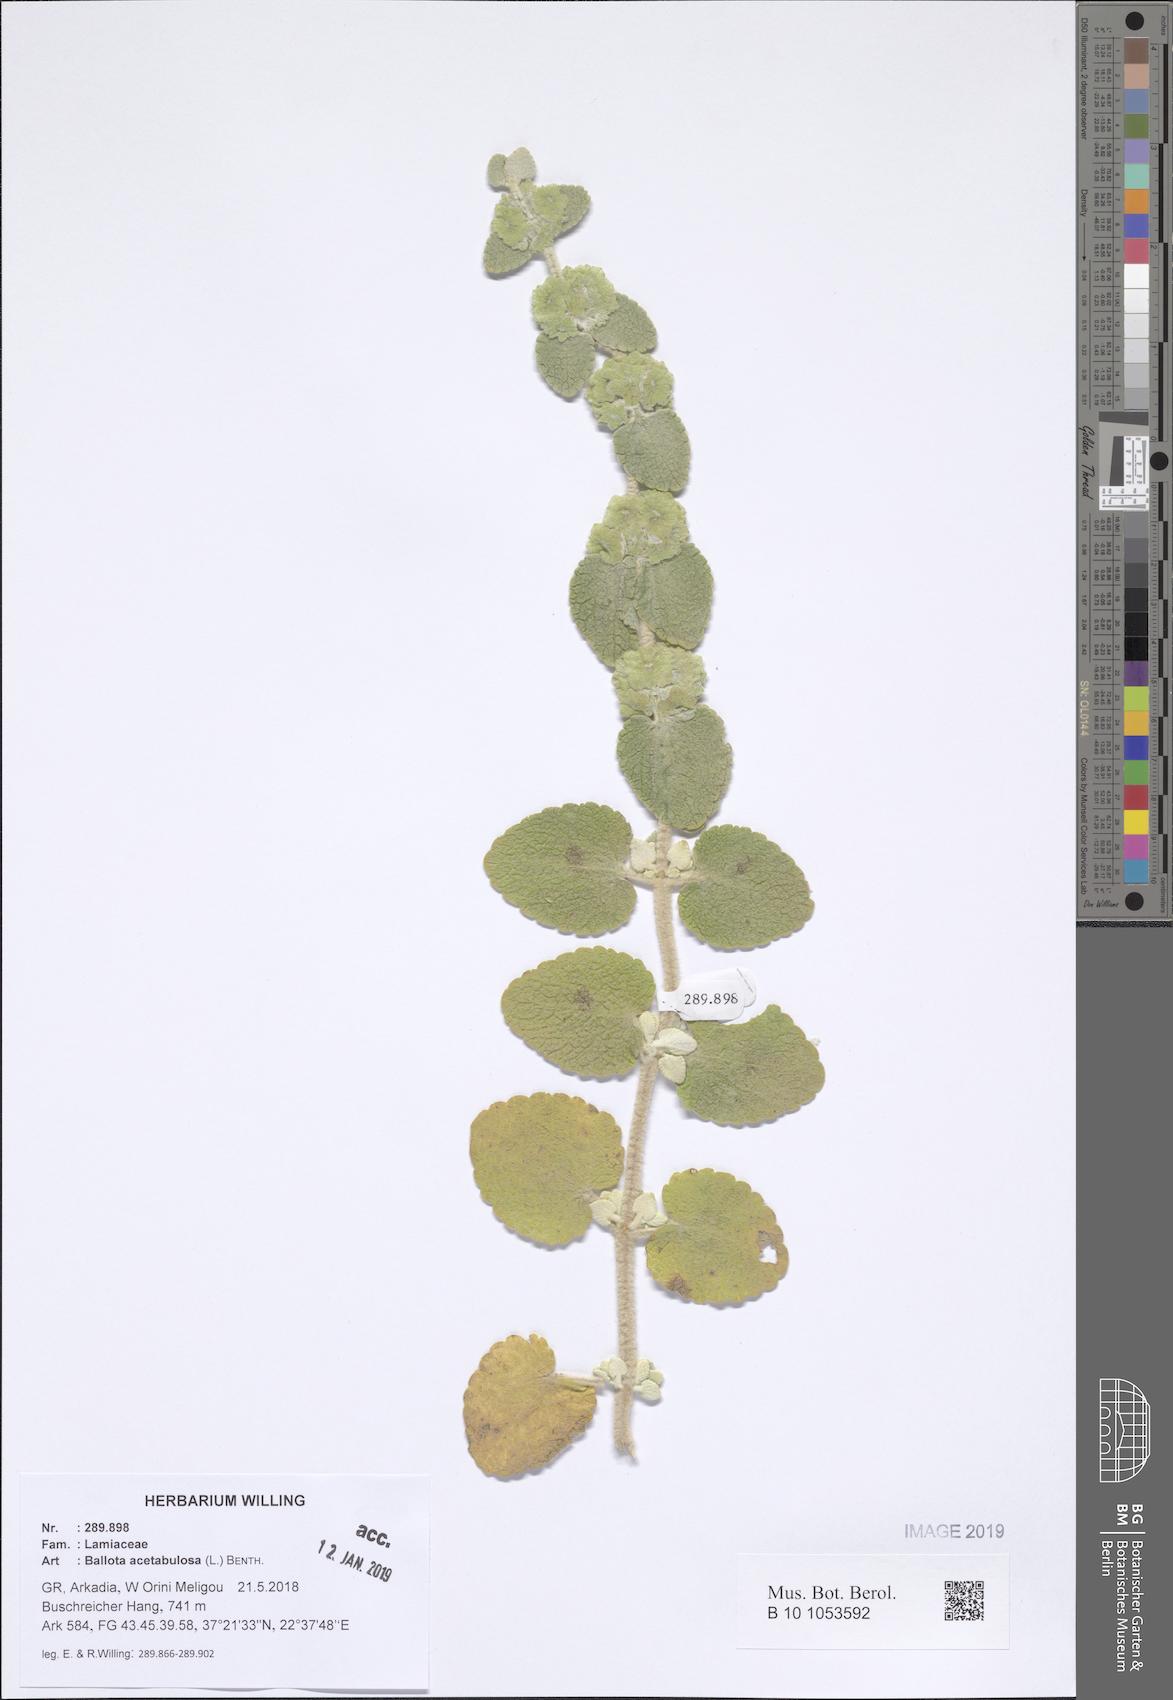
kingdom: Plantae
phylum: Tracheophyta
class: Magnoliopsida
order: Lamiales
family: Lamiaceae
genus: Pseudodictamnus
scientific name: Pseudodictamnus acetabulosus
